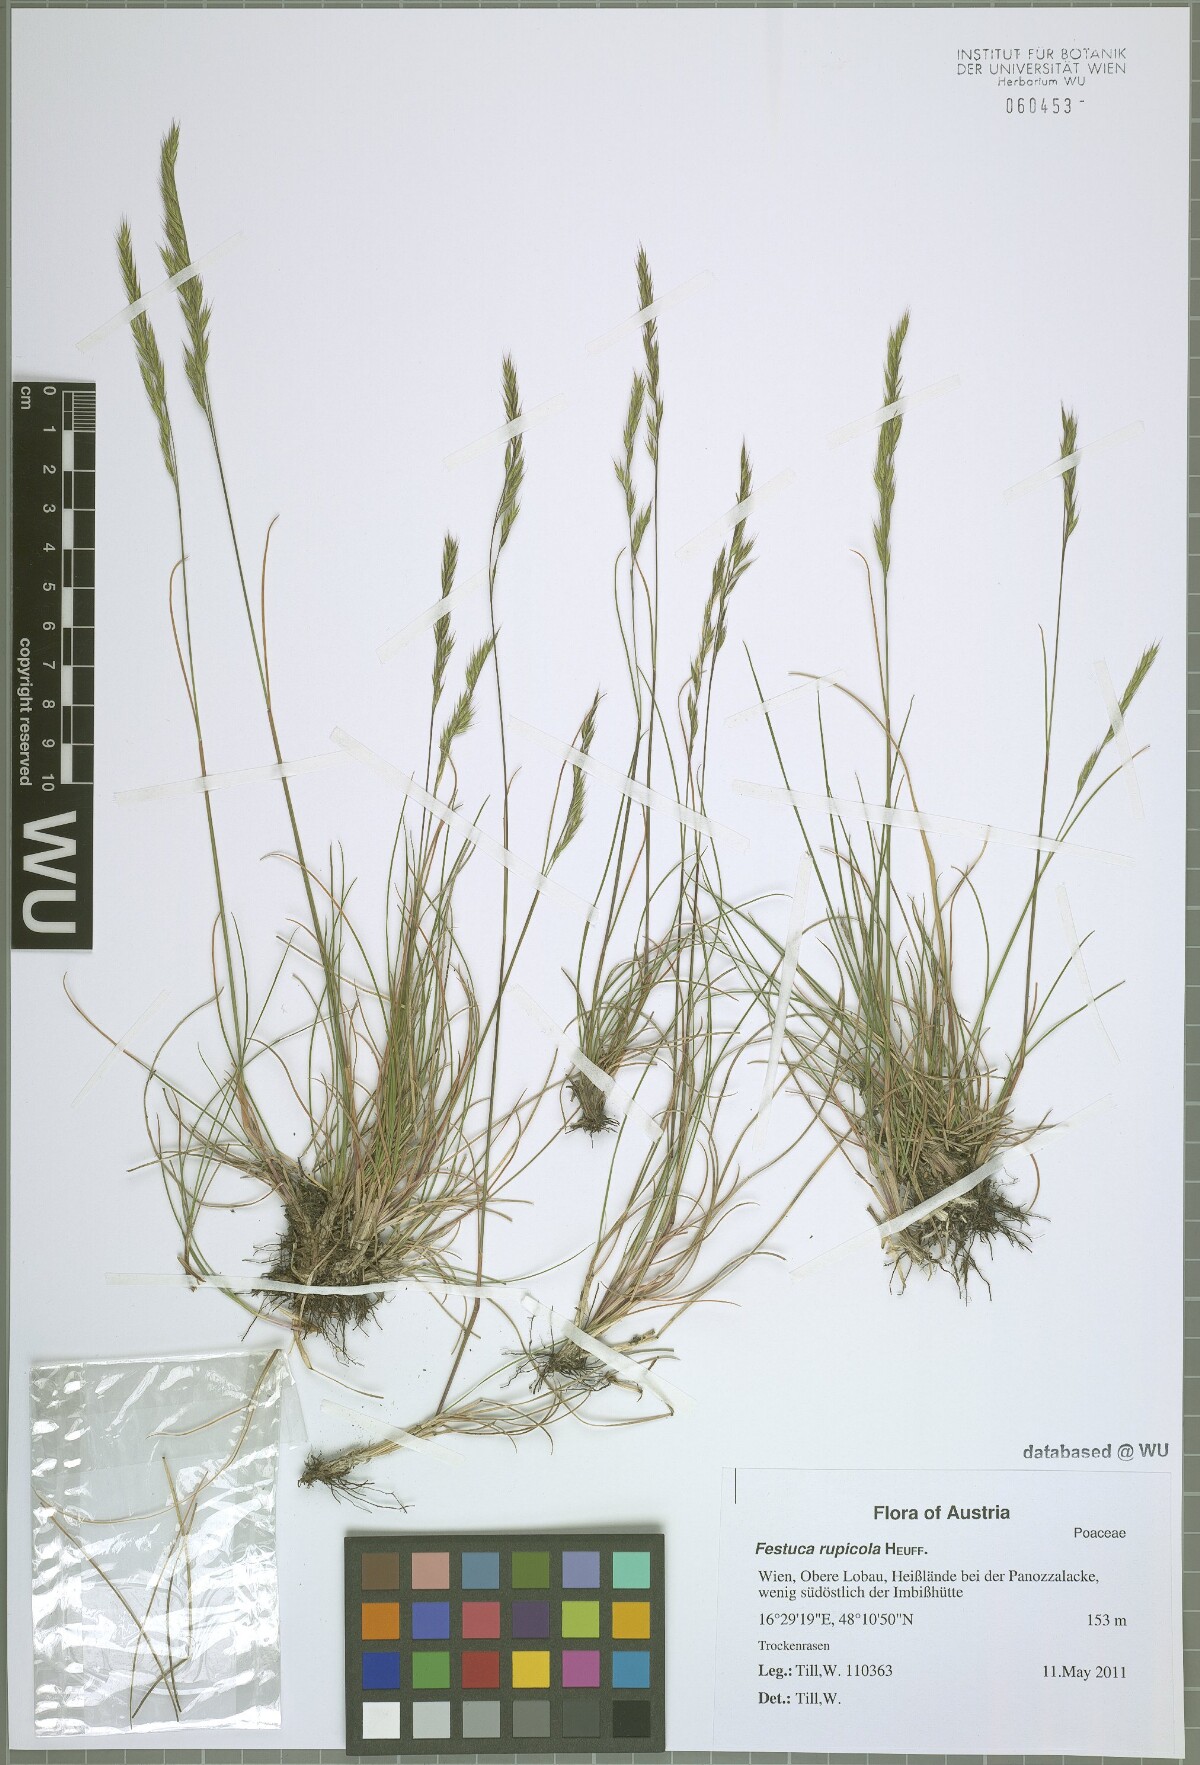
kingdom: Plantae
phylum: Tracheophyta
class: Liliopsida
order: Poales
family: Poaceae
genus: Festuca
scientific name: Festuca rupicola
